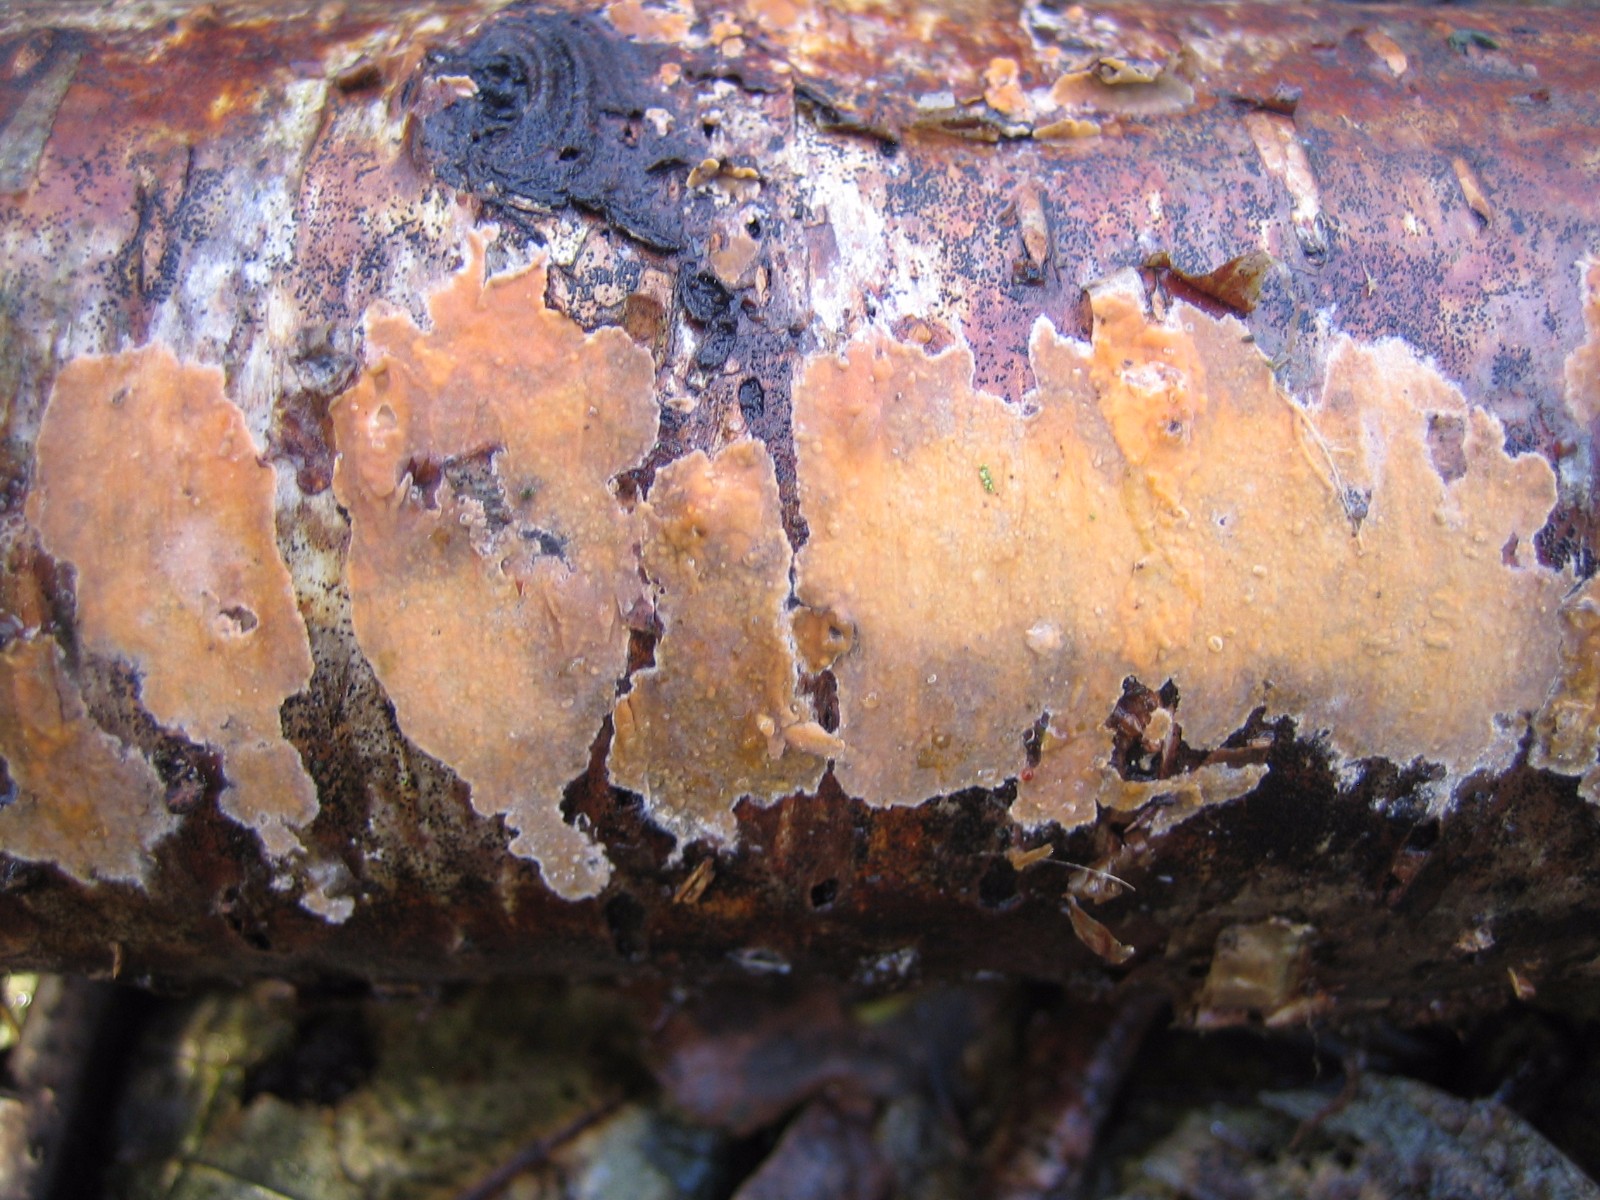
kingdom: Fungi
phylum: Basidiomycota
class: Agaricomycetes
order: Russulales
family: Peniophoraceae
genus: Peniophora
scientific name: Peniophora incarnata
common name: laksefarvet voksskind
